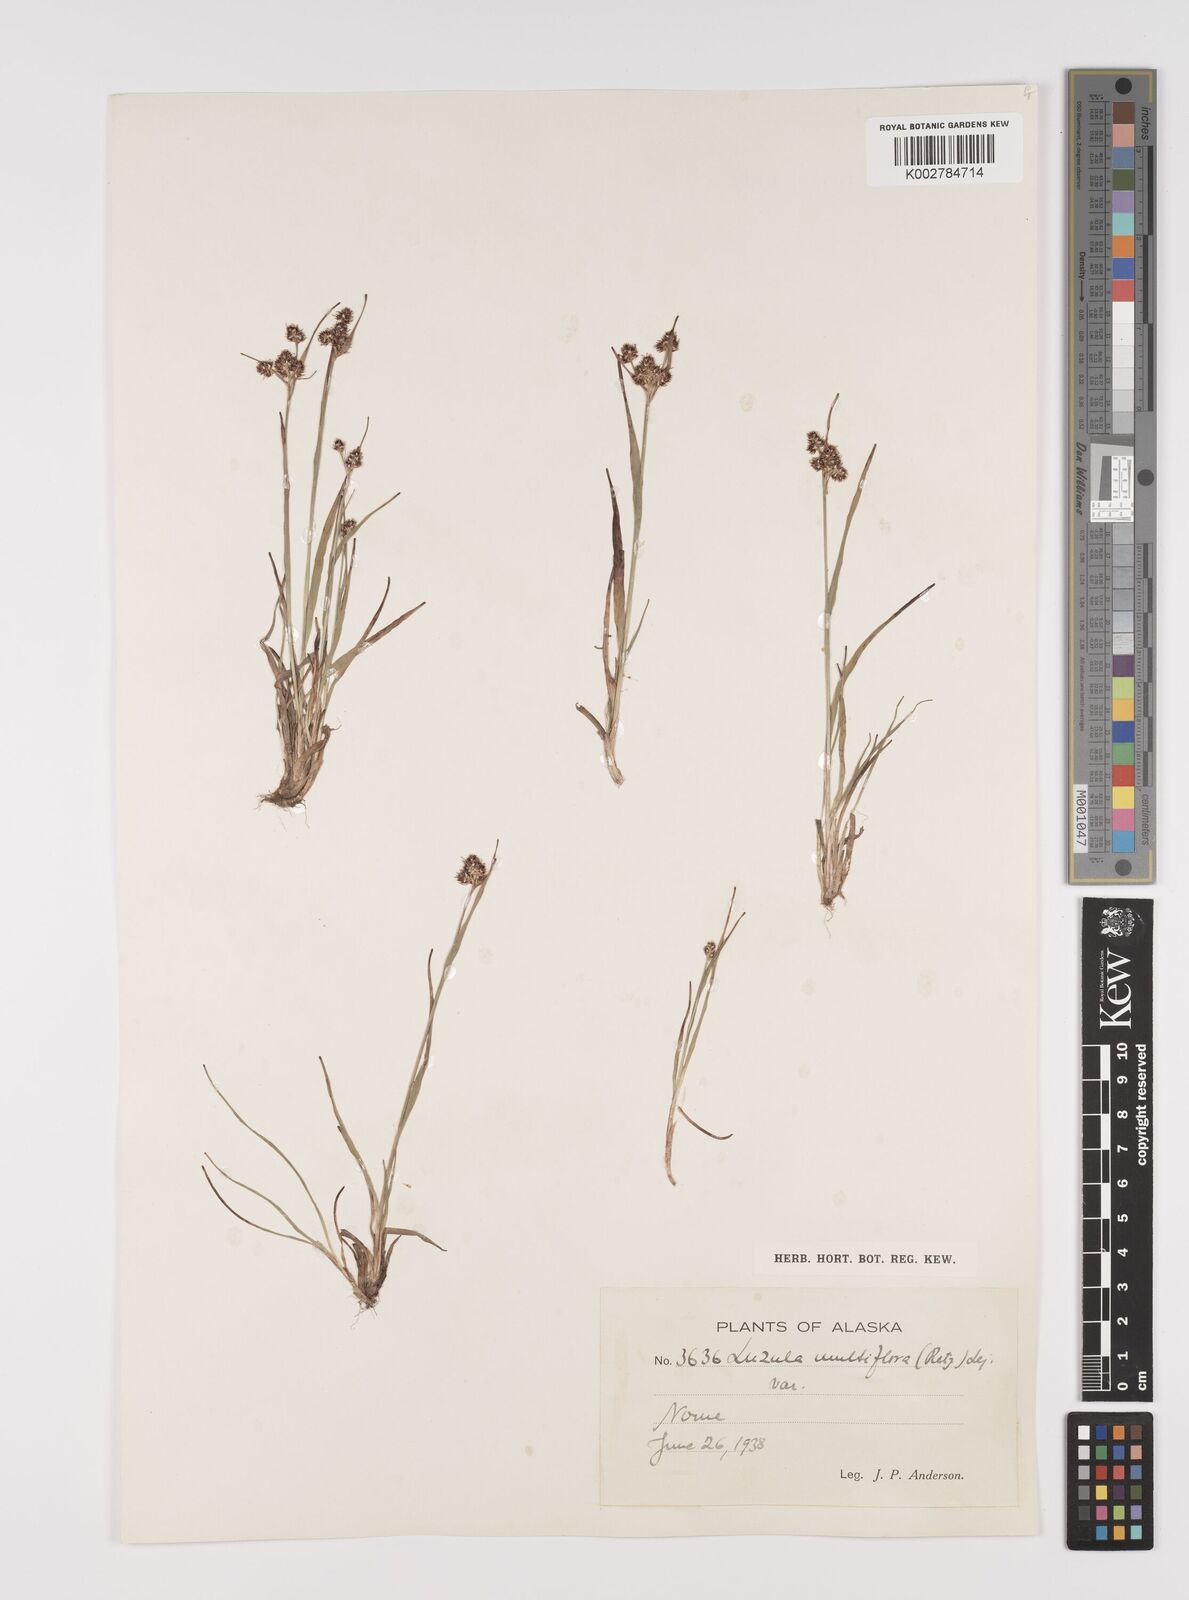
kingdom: Plantae
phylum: Tracheophyta
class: Liliopsida
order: Poales
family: Juncaceae
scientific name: Juncaceae
